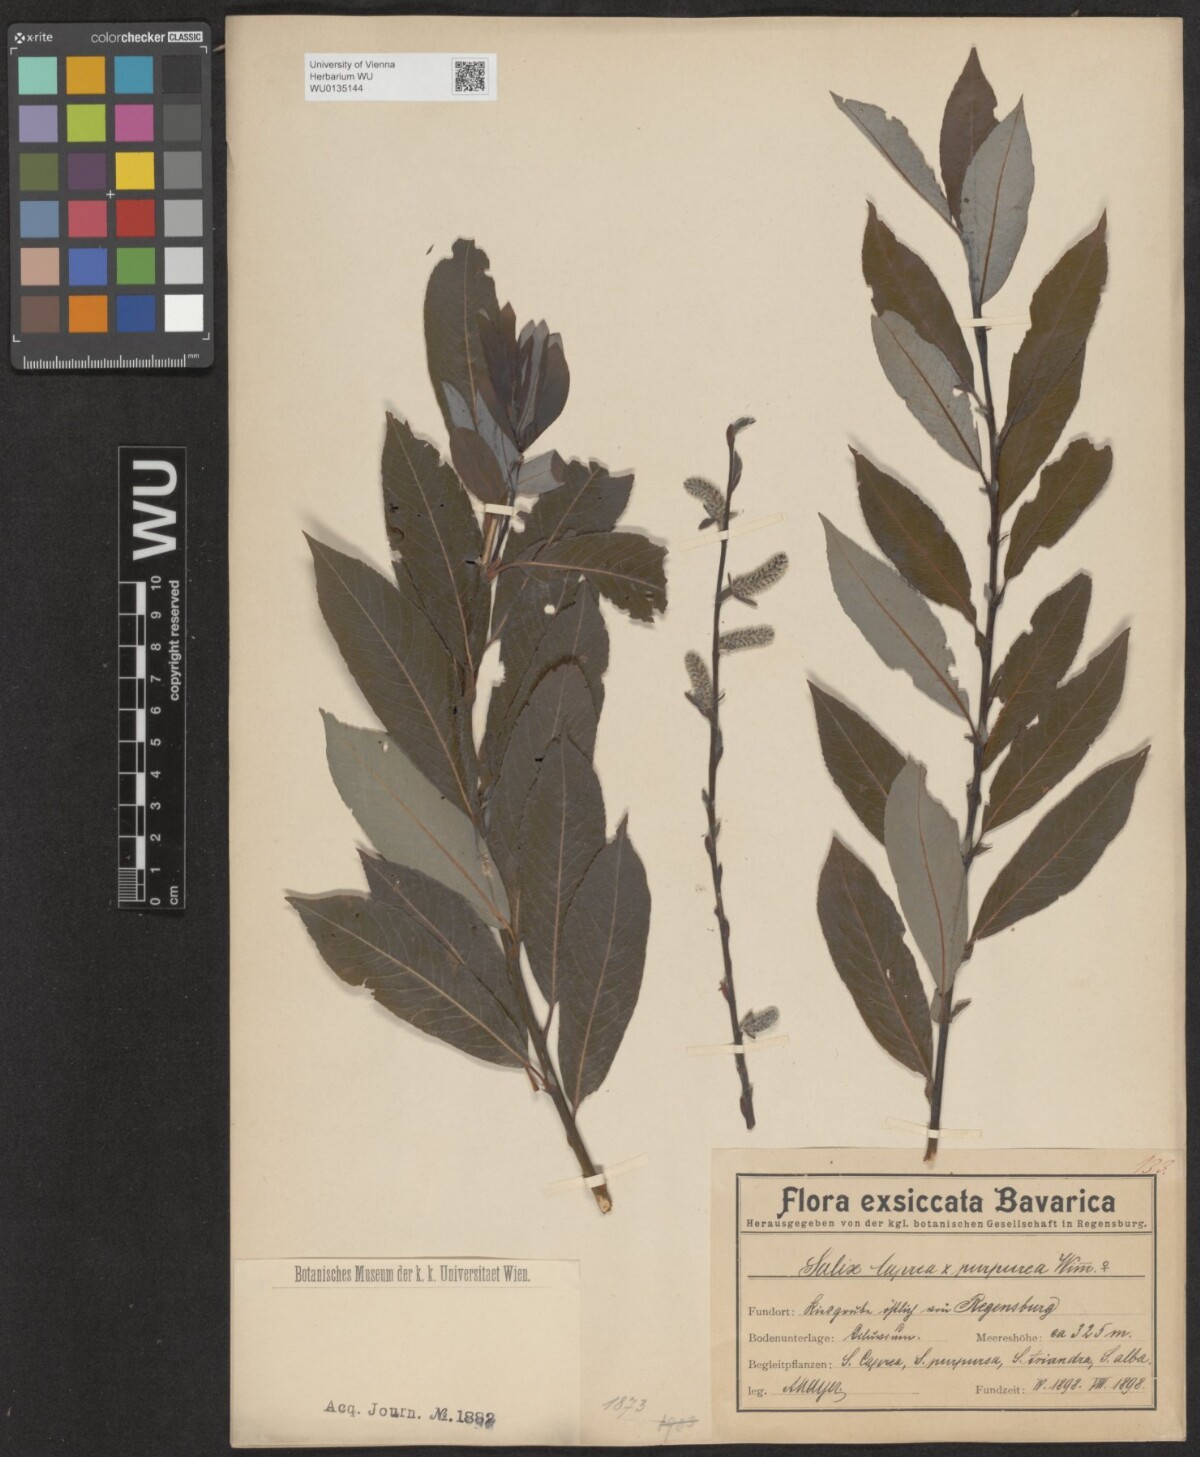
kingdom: Plantae
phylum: Tracheophyta
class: Magnoliopsida
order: Malpighiales
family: Salicaceae
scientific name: Salicaceae
